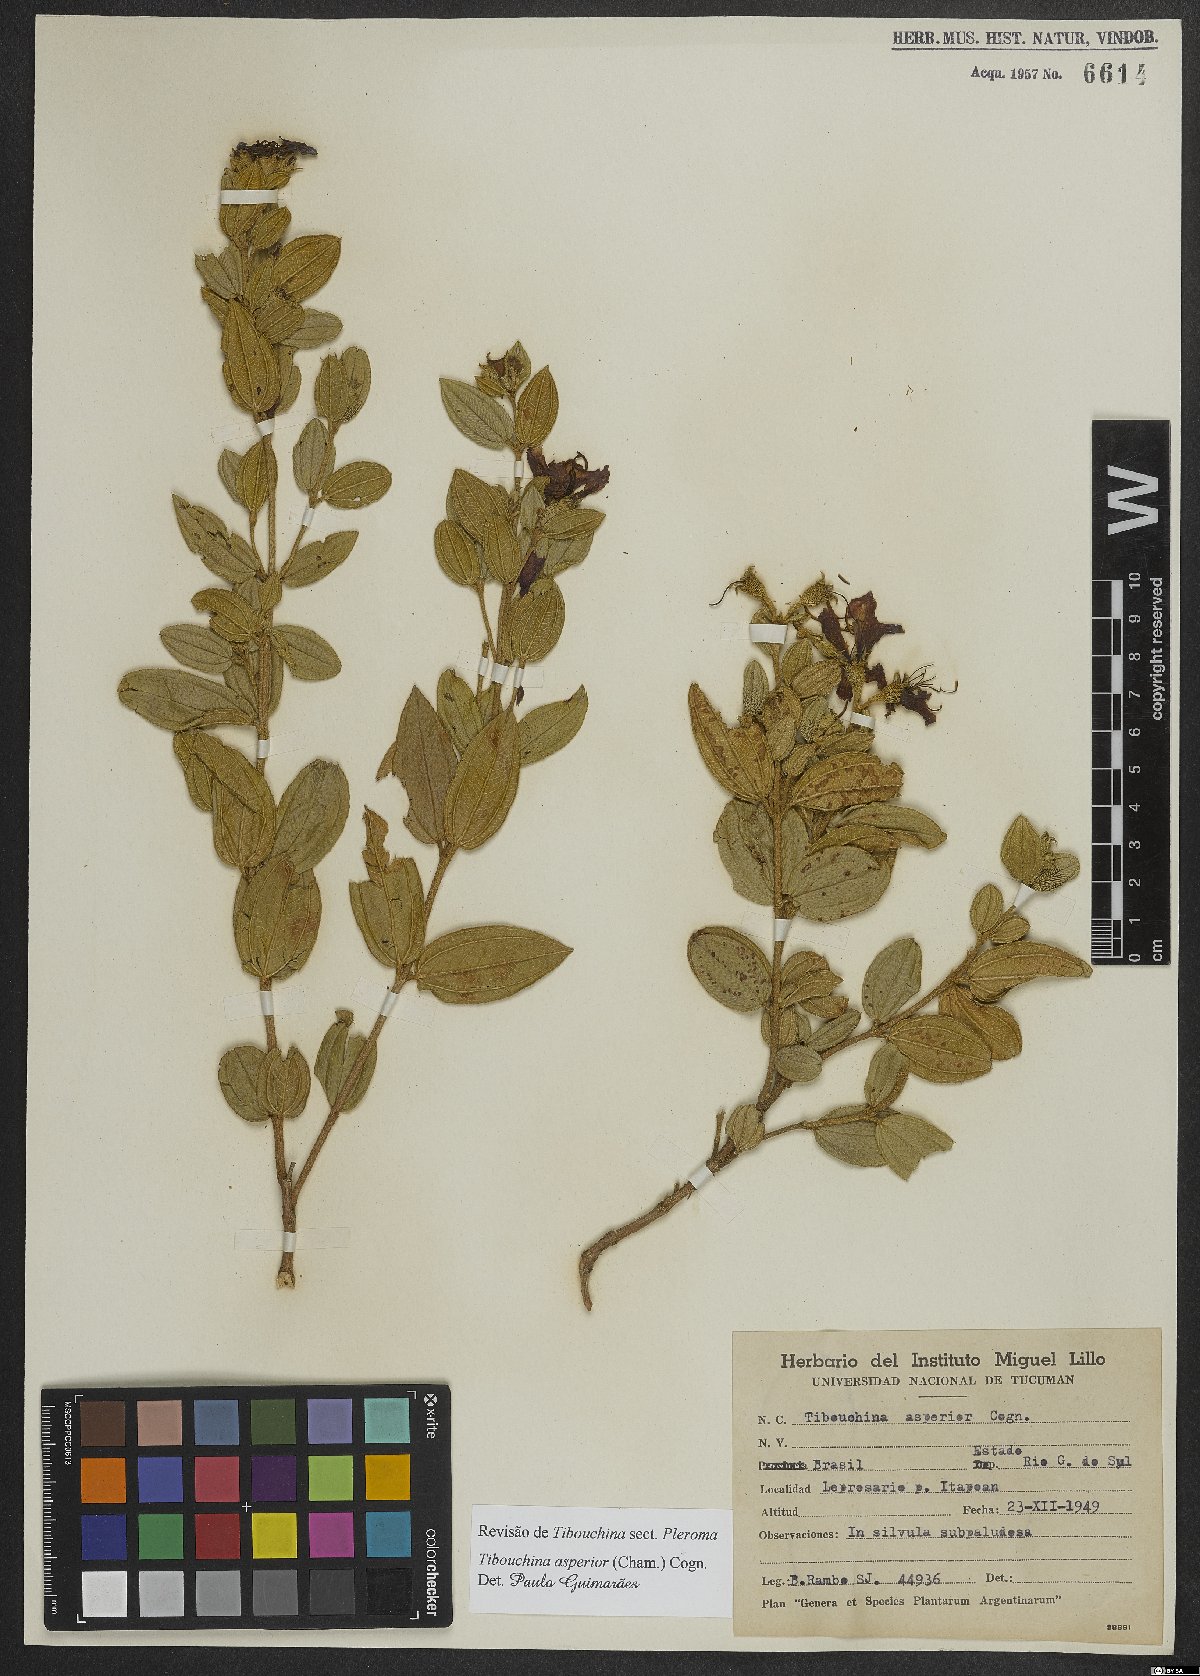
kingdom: Plantae
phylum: Tracheophyta
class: Magnoliopsida
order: Myrtales
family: Melastomataceae
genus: Pleroma
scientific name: Pleroma asperius
